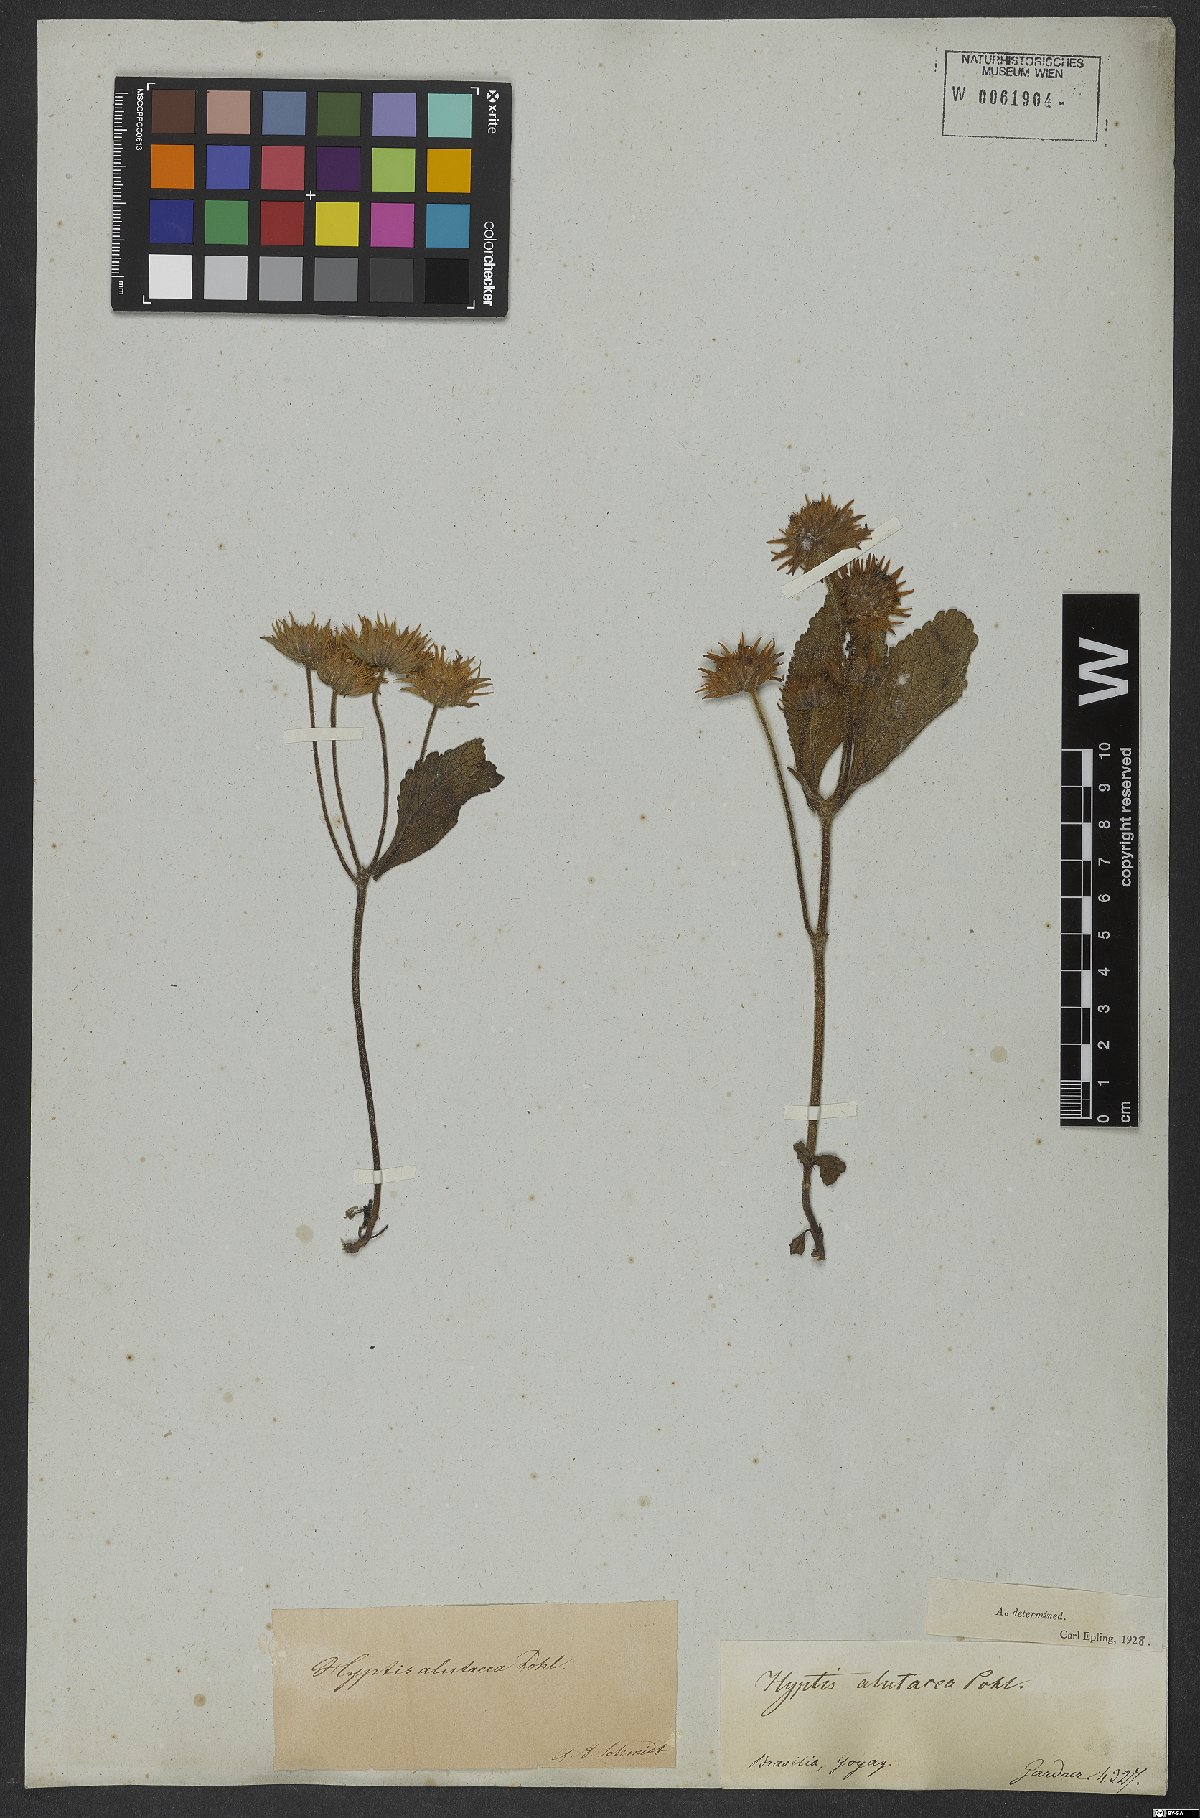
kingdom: Plantae
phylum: Tracheophyta
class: Magnoliopsida
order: Lamiales
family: Lamiaceae
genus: Hyptis
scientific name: Hyptis alutacea
